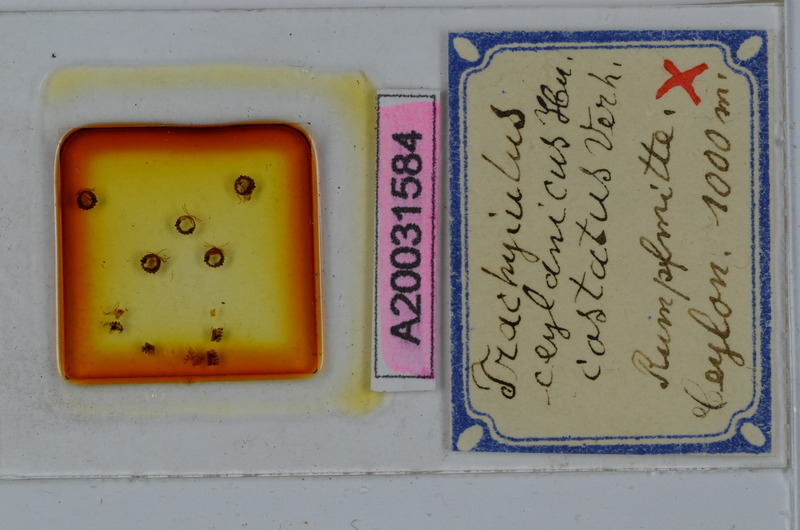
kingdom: Animalia
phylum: Arthropoda
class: Diplopoda
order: Spirostreptida
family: Cambalopsidae
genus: Trachyjulus
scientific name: Trachyjulus ceylanicus
